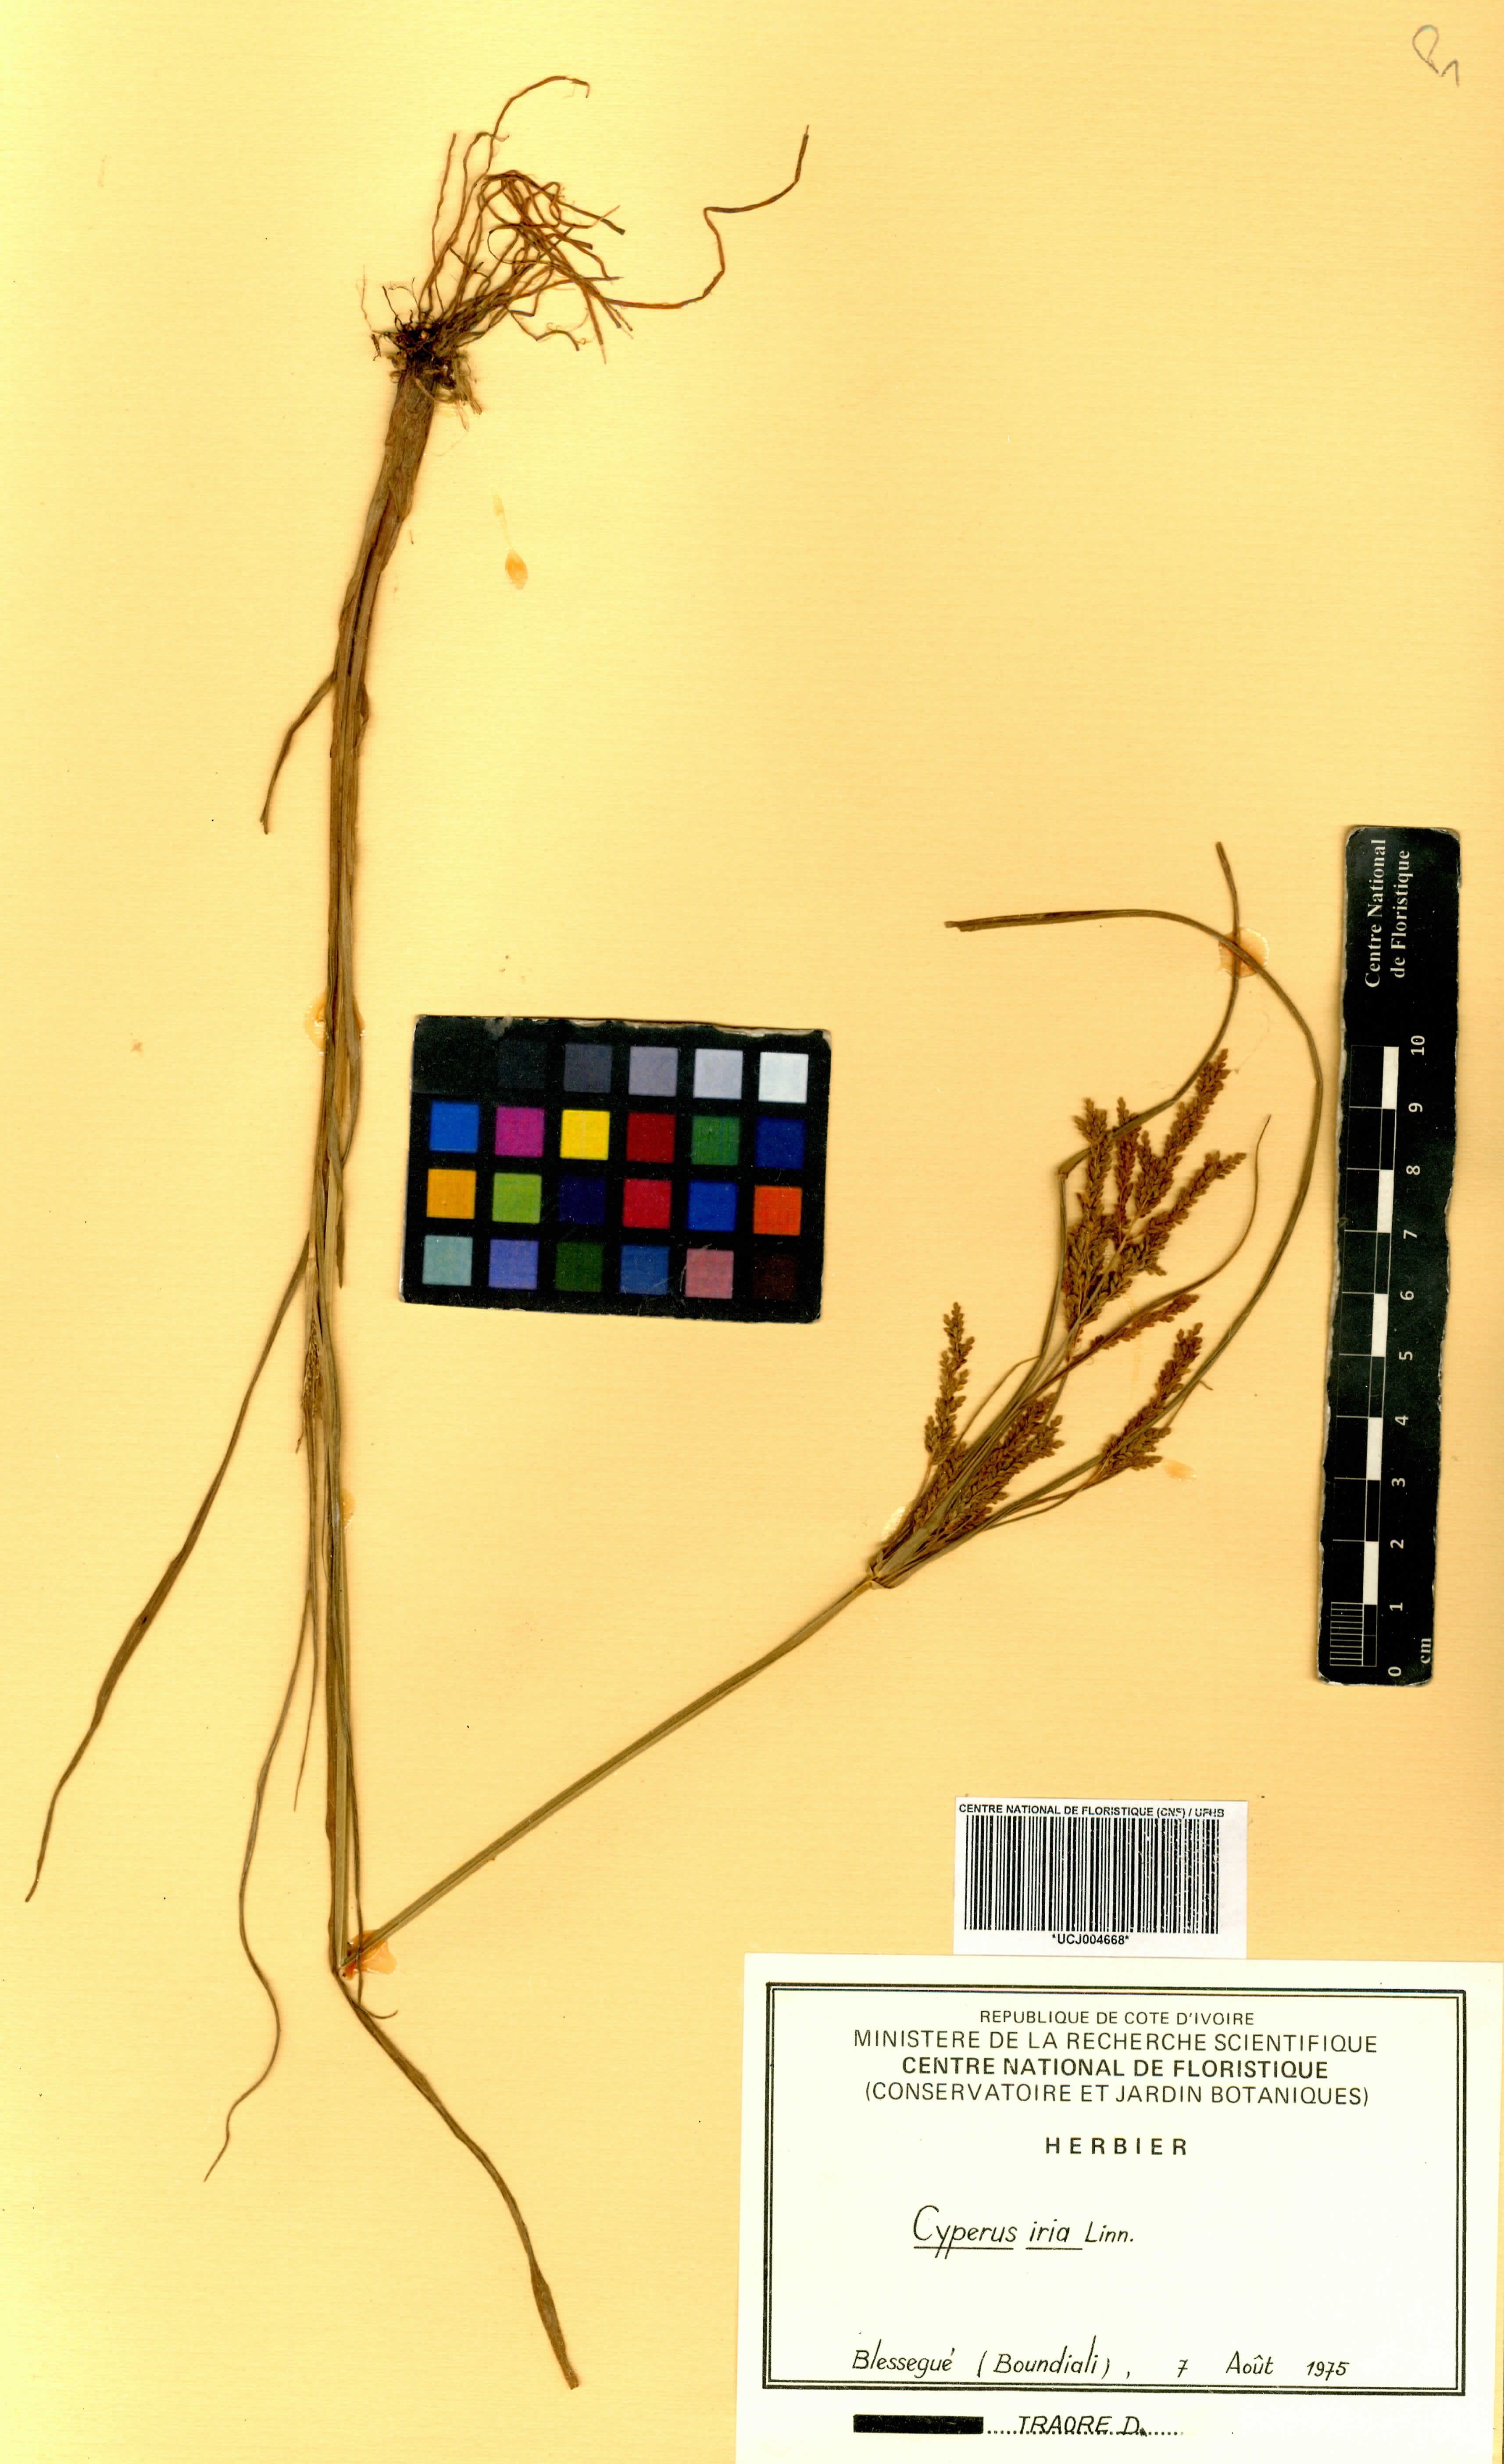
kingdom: Plantae
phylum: Tracheophyta
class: Liliopsida
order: Poales
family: Cyperaceae
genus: Cyperus
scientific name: Cyperus iria
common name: Ricefield flatsedge
